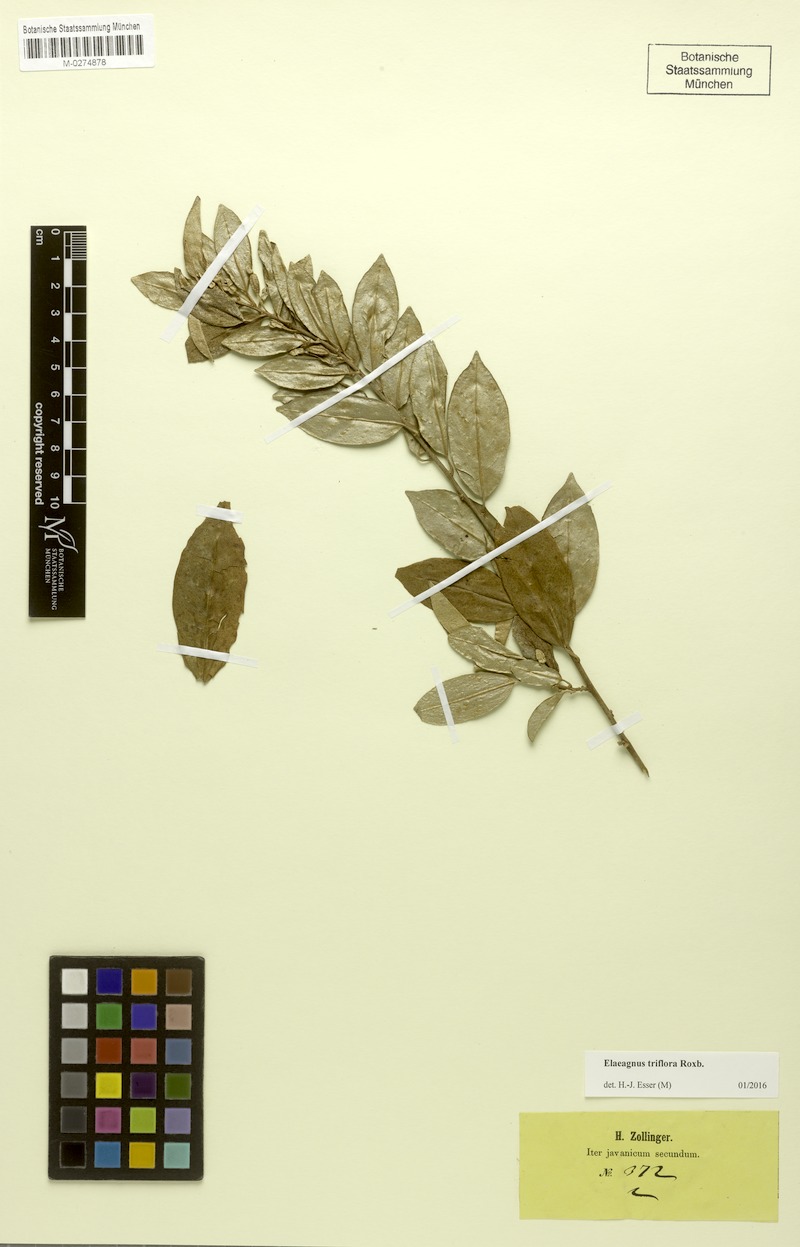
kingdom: Plantae
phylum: Tracheophyta
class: Magnoliopsida
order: Rosales
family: Elaeagnaceae
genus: Elaeagnus
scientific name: Elaeagnus triflora
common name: Millaa millaa-vine
